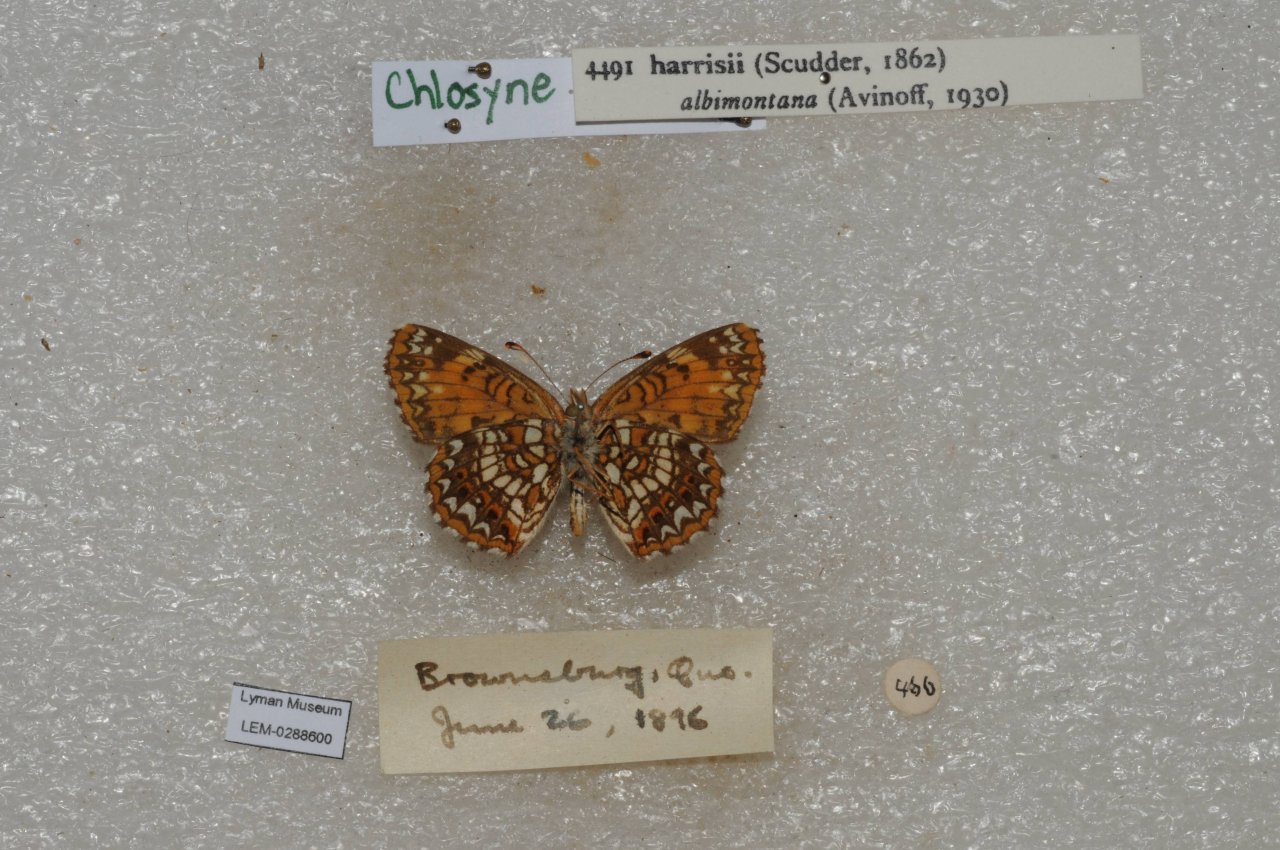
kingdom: Animalia
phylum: Arthropoda
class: Insecta
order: Lepidoptera
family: Nymphalidae
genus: Chlosyne
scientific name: Chlosyne harrisii
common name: Harris's Checkerspot
